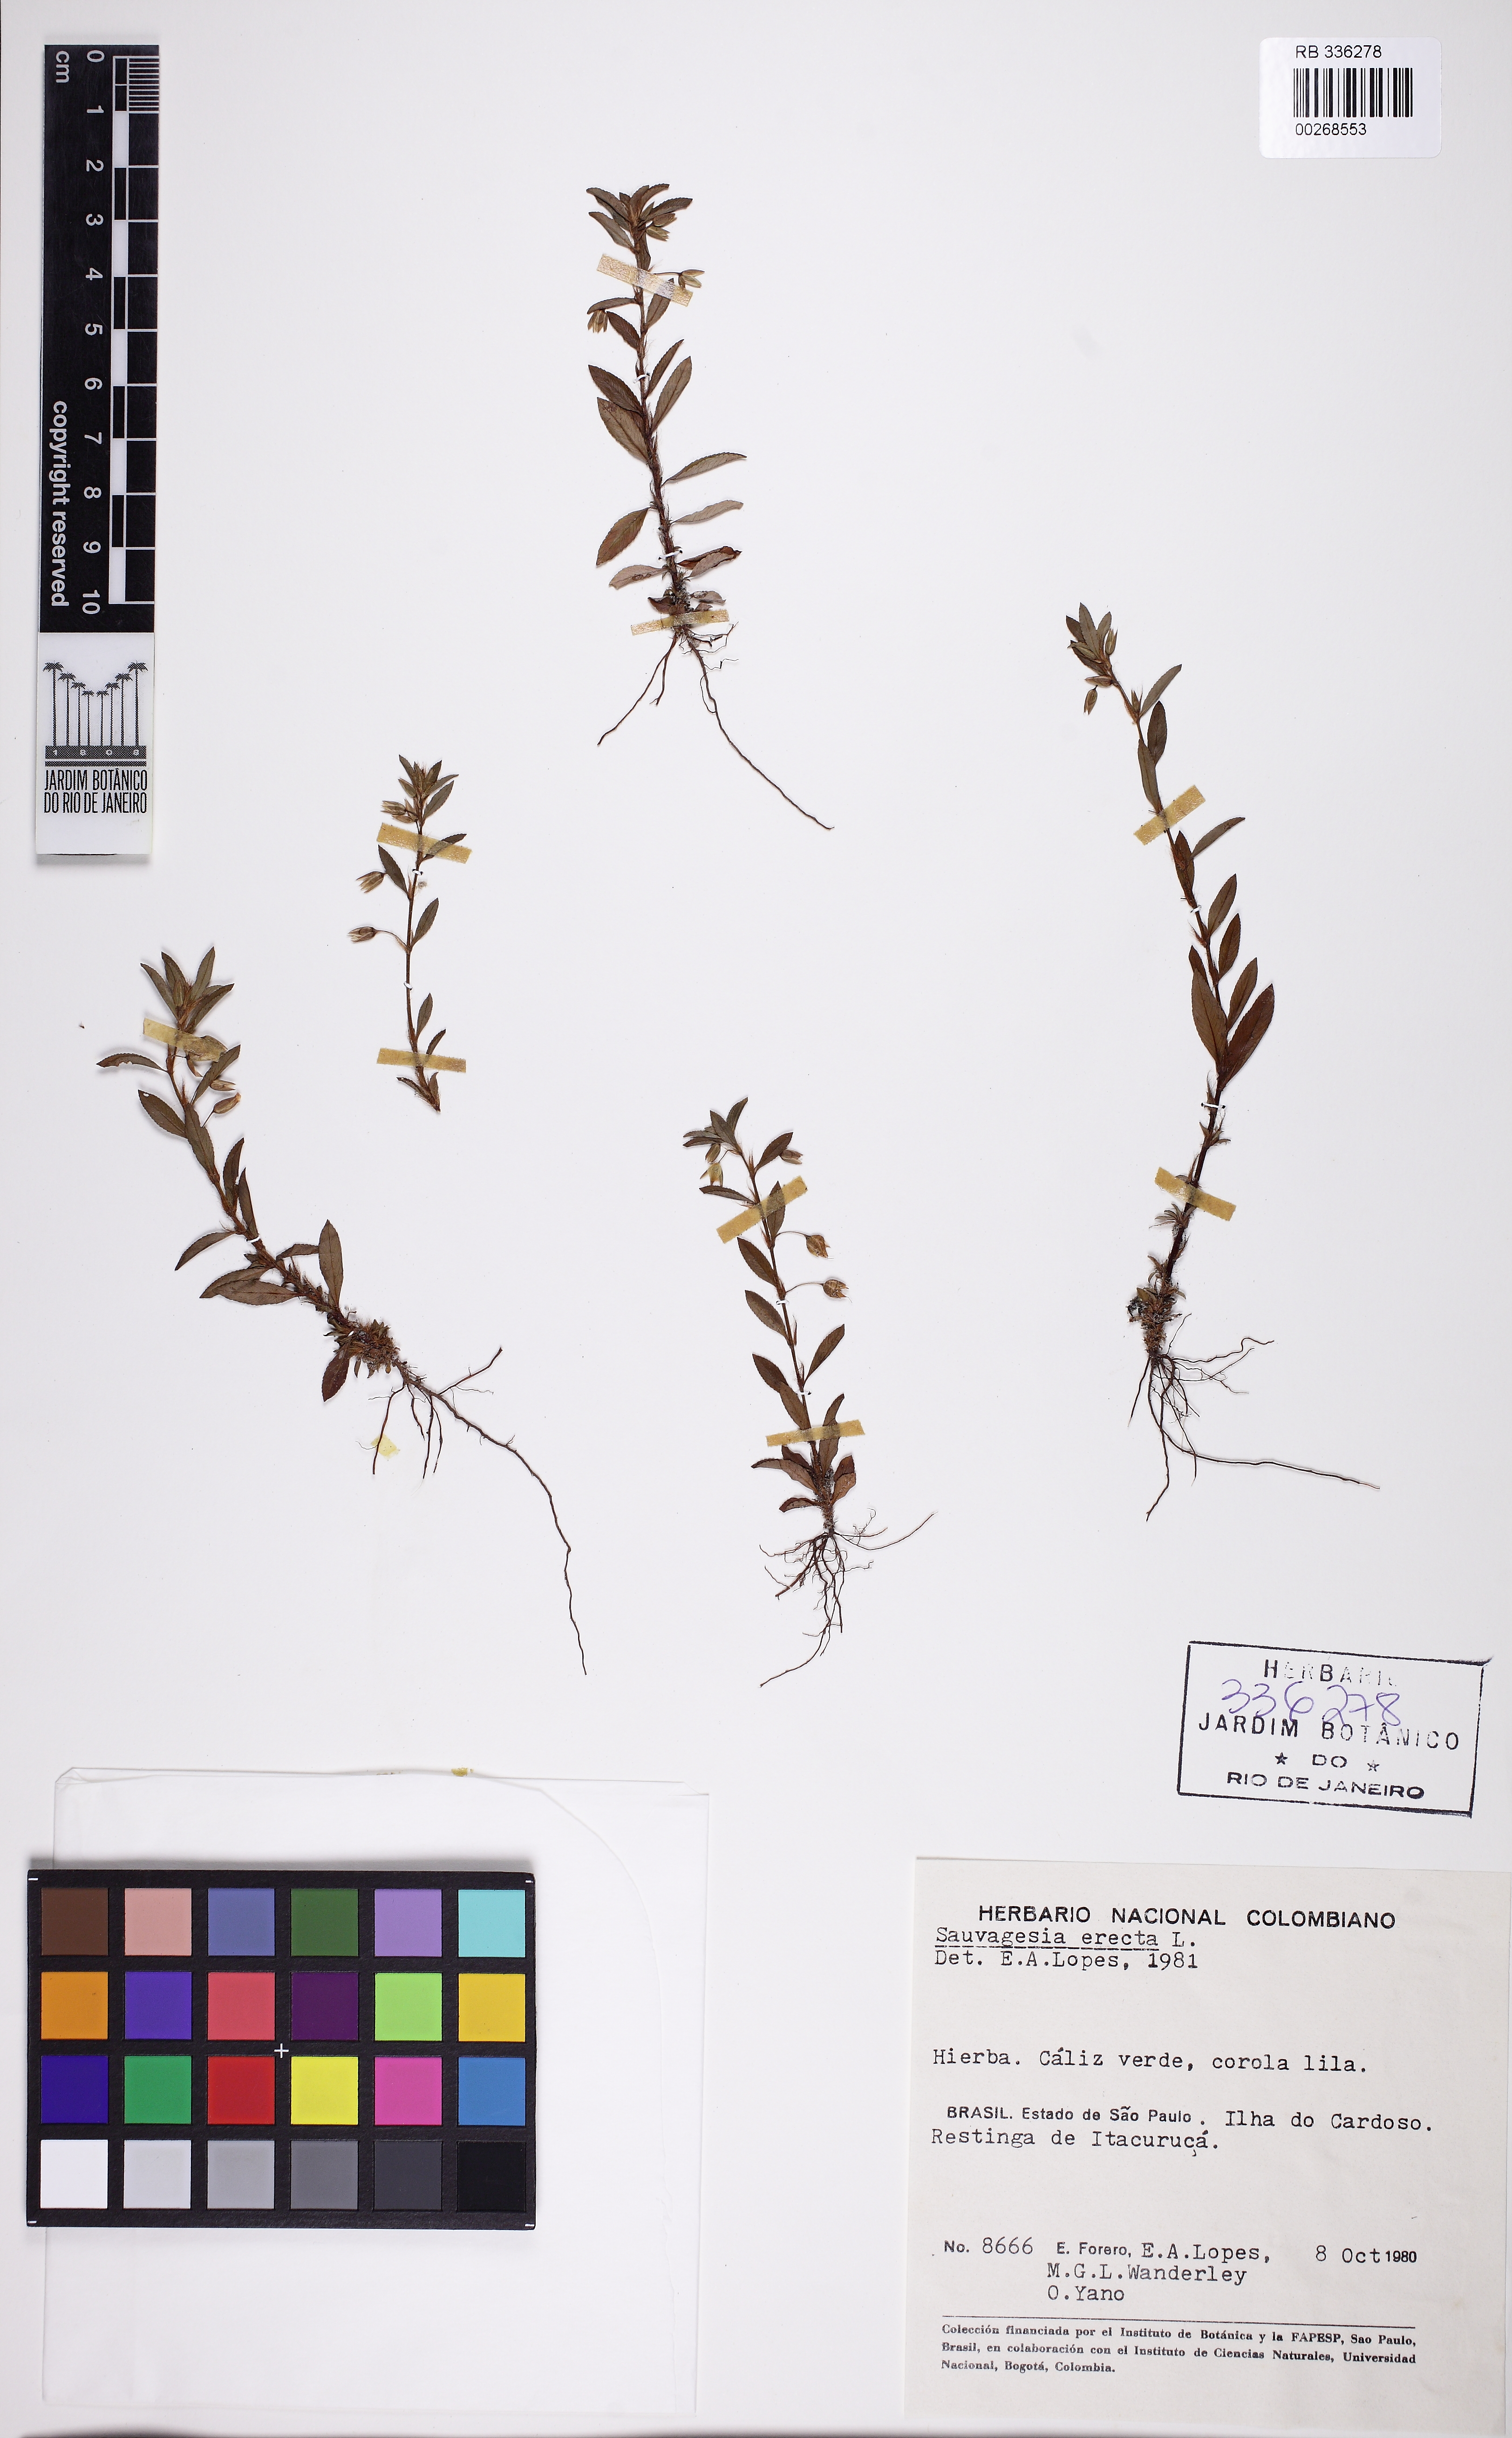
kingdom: Plantae
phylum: Tracheophyta
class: Magnoliopsida
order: Malpighiales
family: Ochnaceae
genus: Sauvagesia
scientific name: Sauvagesia erecta
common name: Creole tea
